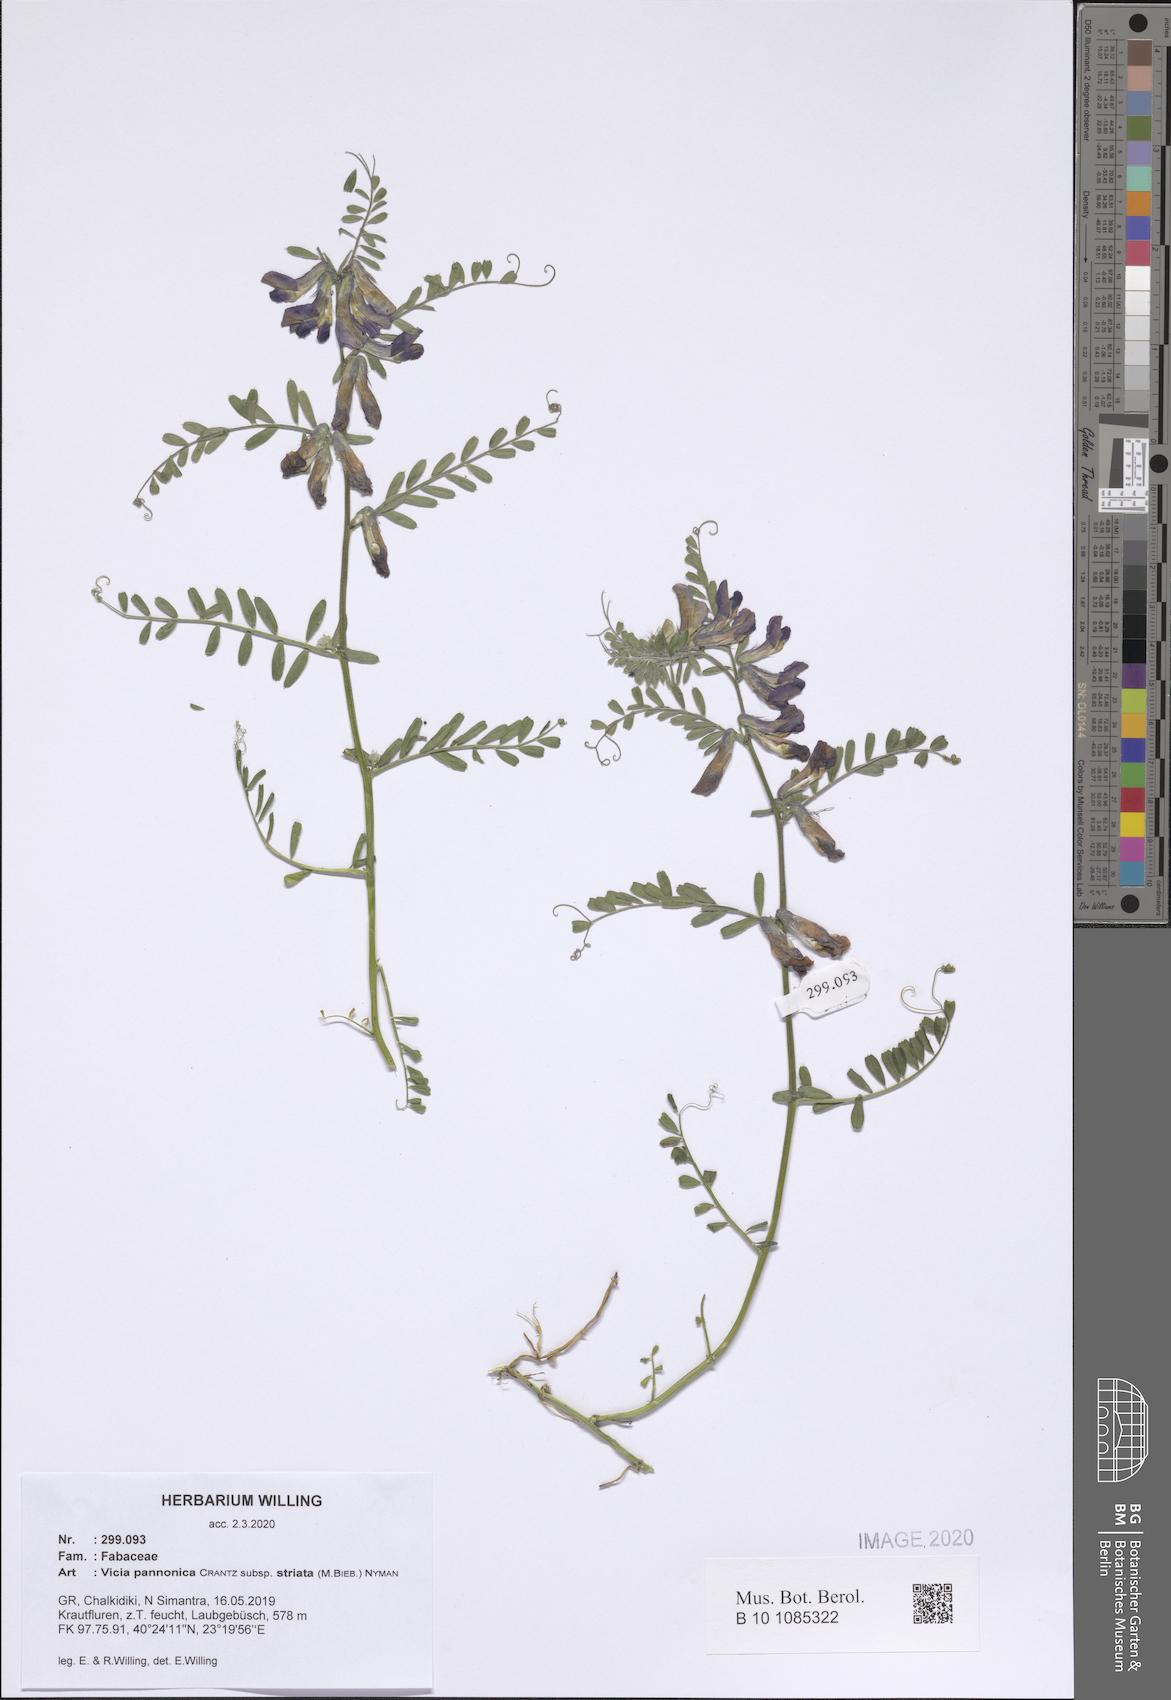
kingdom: Plantae
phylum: Tracheophyta
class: Magnoliopsida
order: Fabales
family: Fabaceae
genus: Vicia
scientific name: Vicia pannonica
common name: Hungarian vetch
